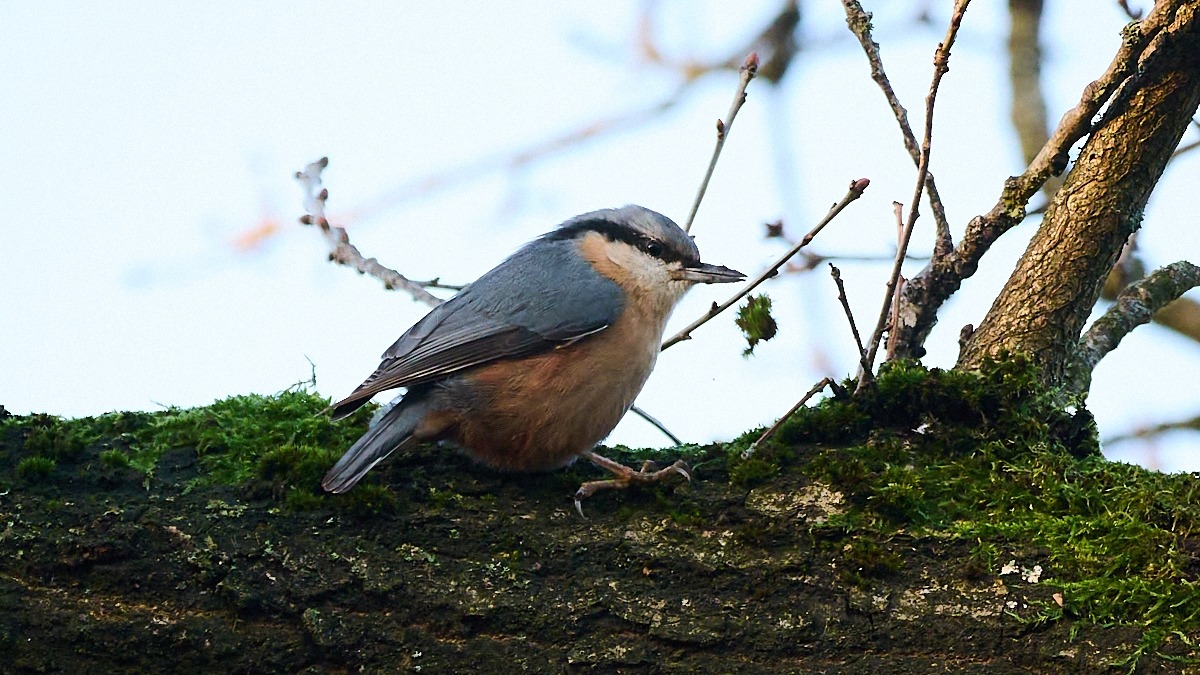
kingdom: Animalia
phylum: Chordata
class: Aves
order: Passeriformes
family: Sittidae
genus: Sitta
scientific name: Sitta europaea
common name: Mørkbuget spætmejse
